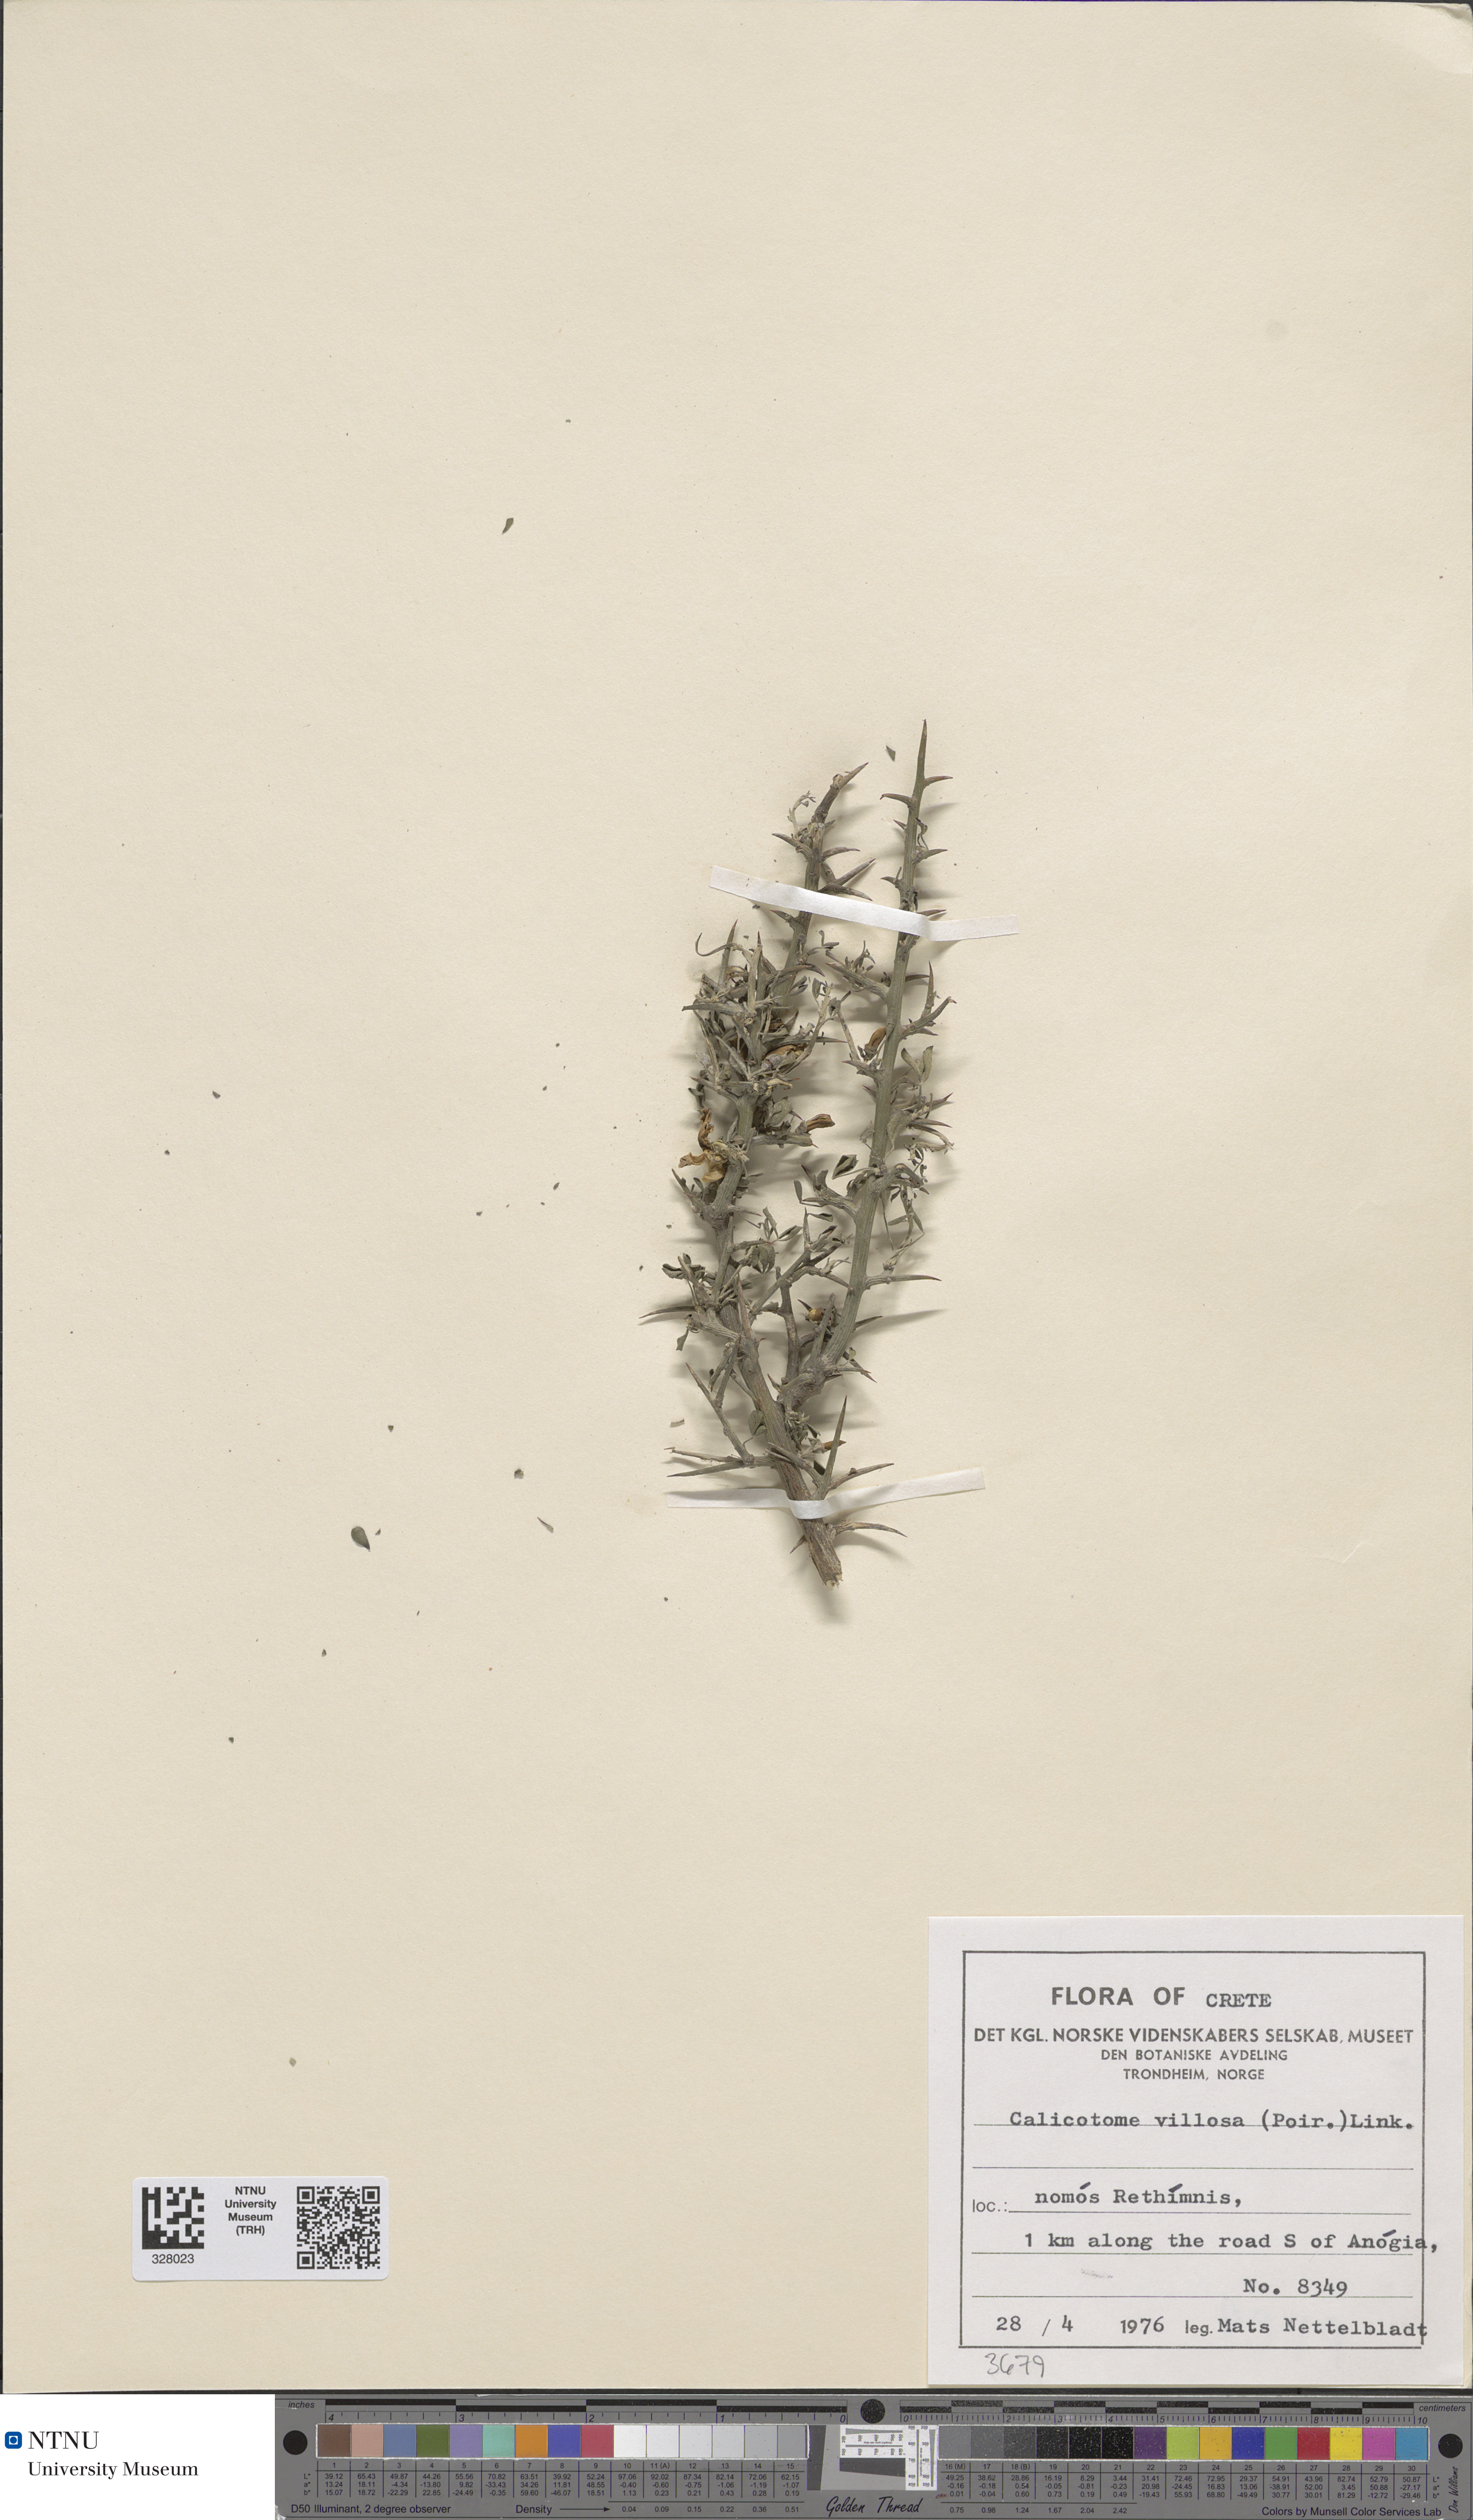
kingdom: Plantae
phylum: Tracheophyta
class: Magnoliopsida
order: Fabales
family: Fabaceae
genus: Calicotome
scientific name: Calicotome villosa
